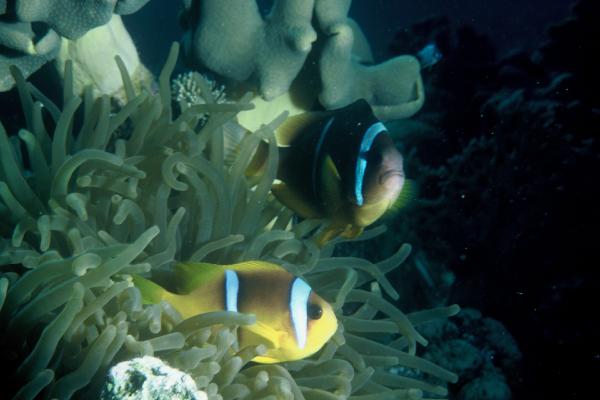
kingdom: Animalia
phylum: Chordata
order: Perciformes
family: Pomacentridae
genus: Amphiprion
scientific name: Amphiprion bicinctus
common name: Two-banded anemonefish
